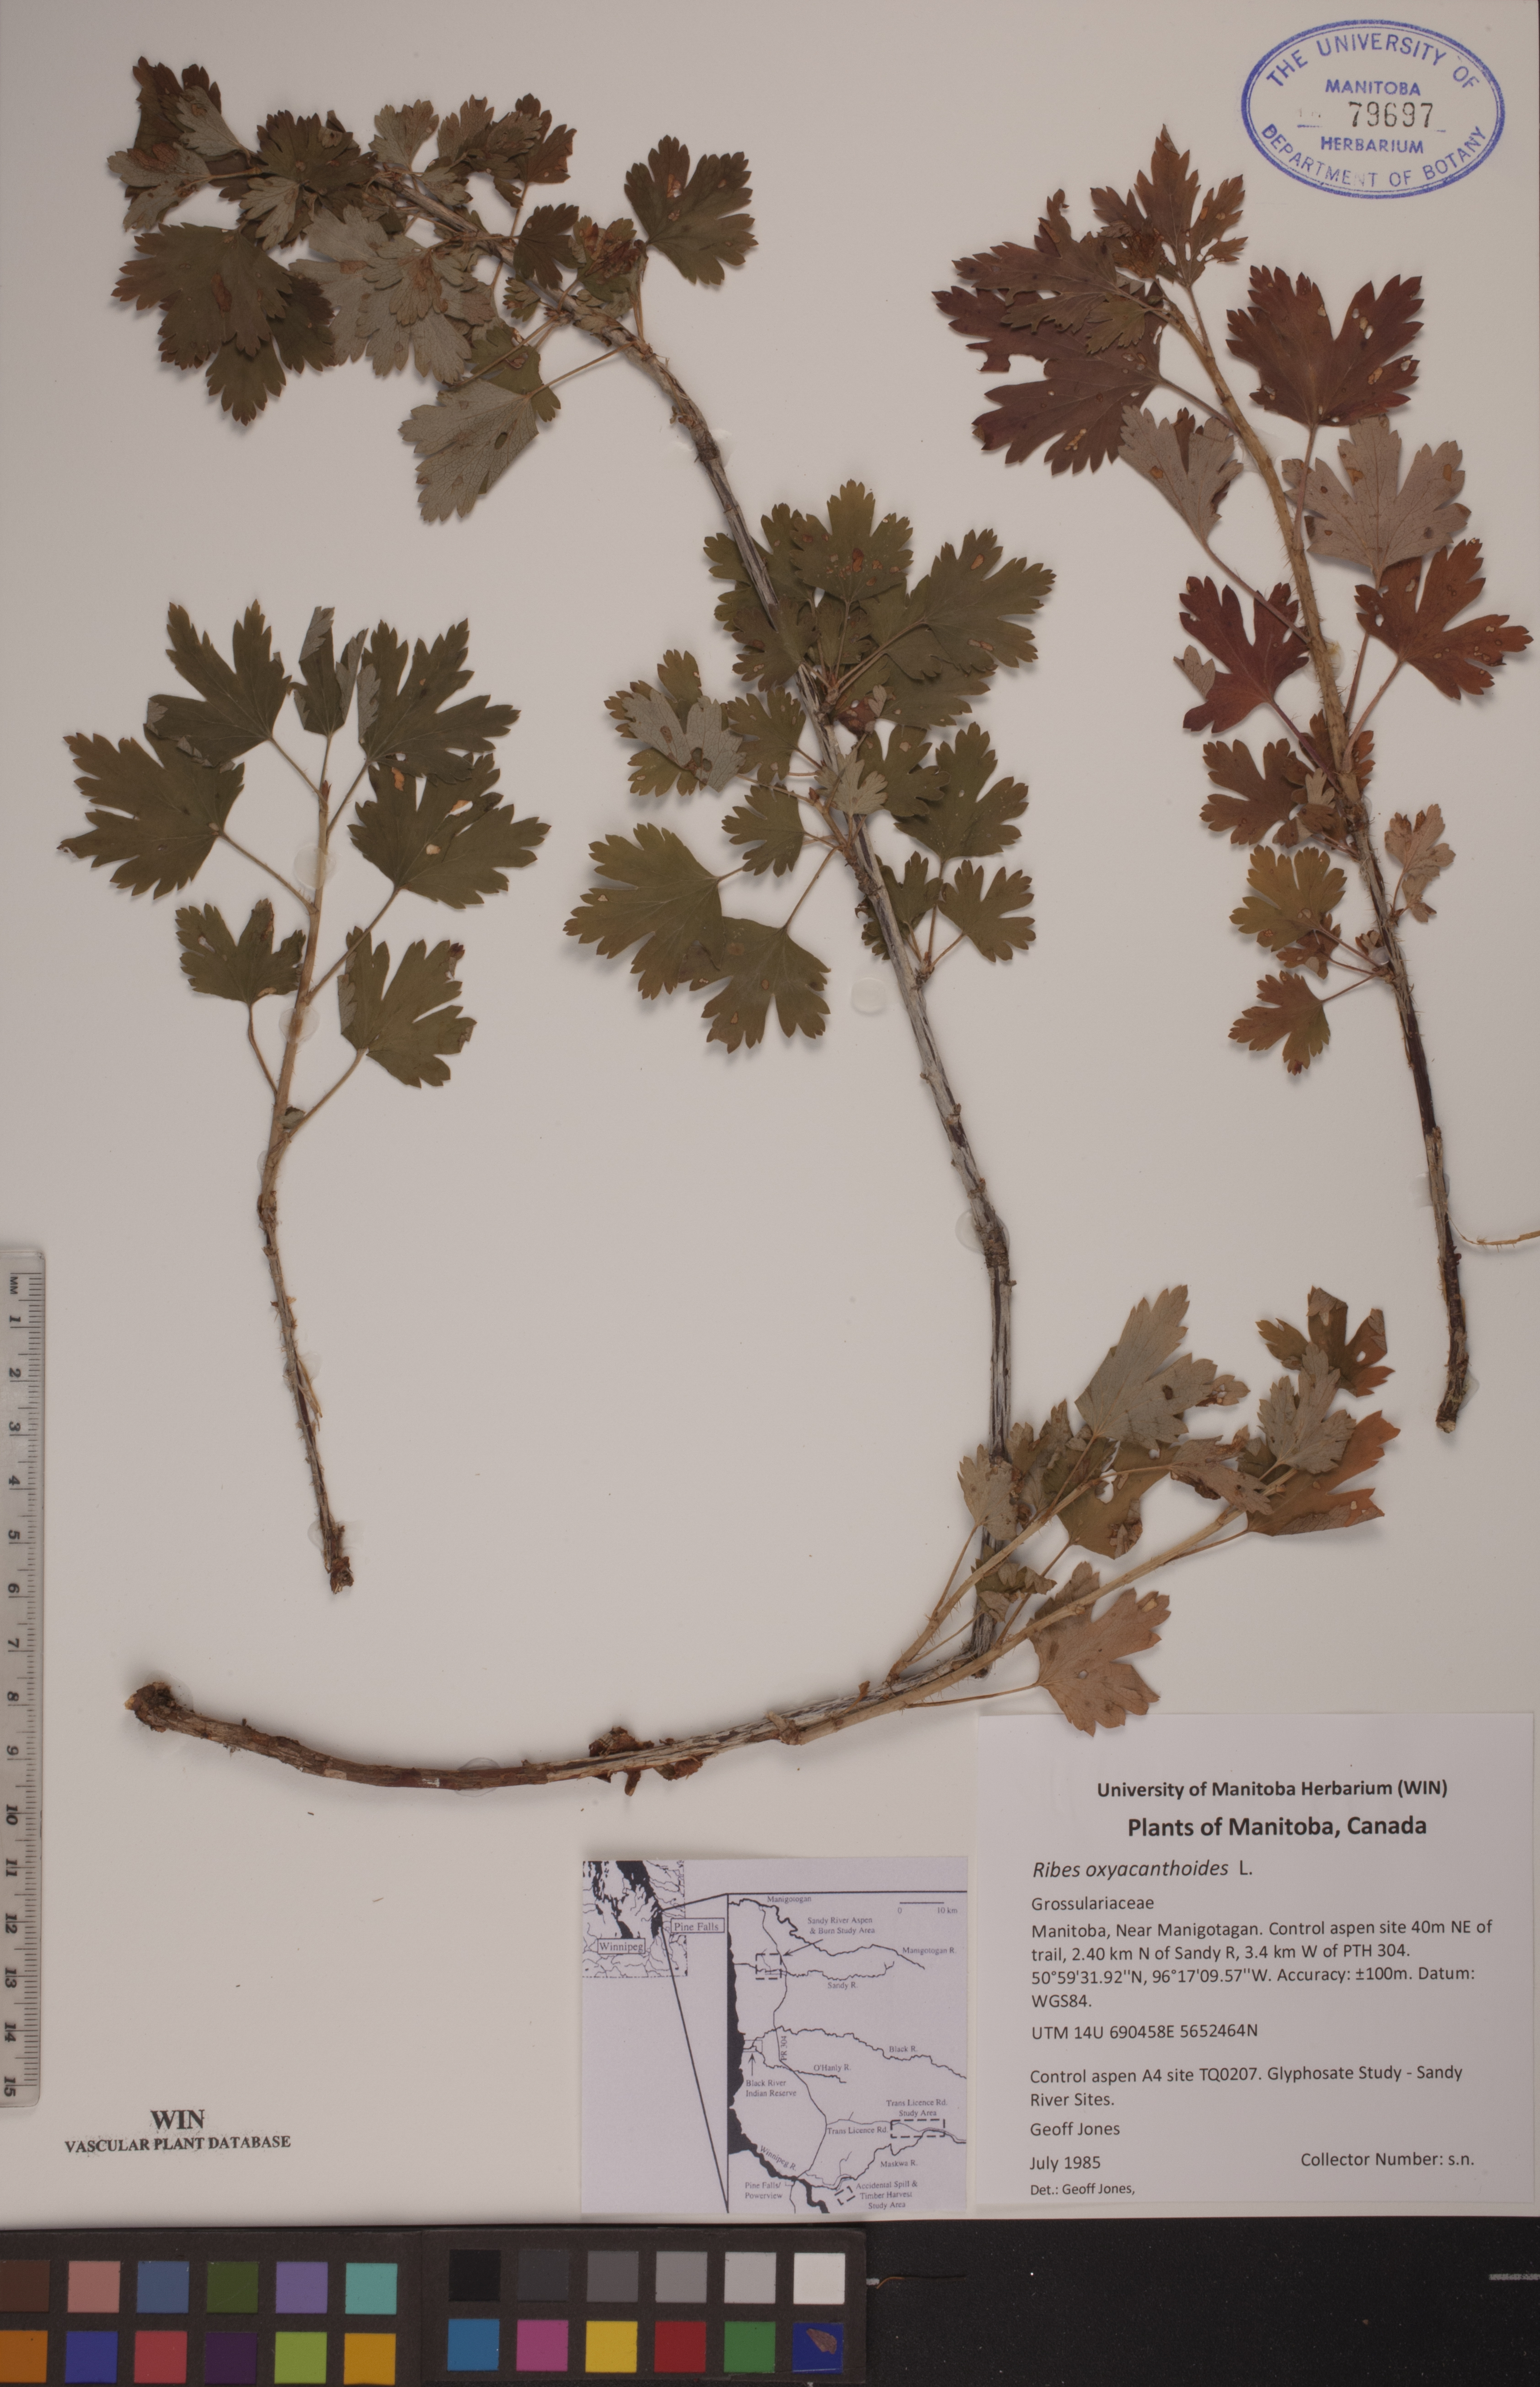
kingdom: Plantae
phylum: Tracheophyta
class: Magnoliopsida
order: Saxifragales
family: Grossulariaceae
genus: Ribes
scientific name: Ribes oxyacanthoides
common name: Northern gooseberry
